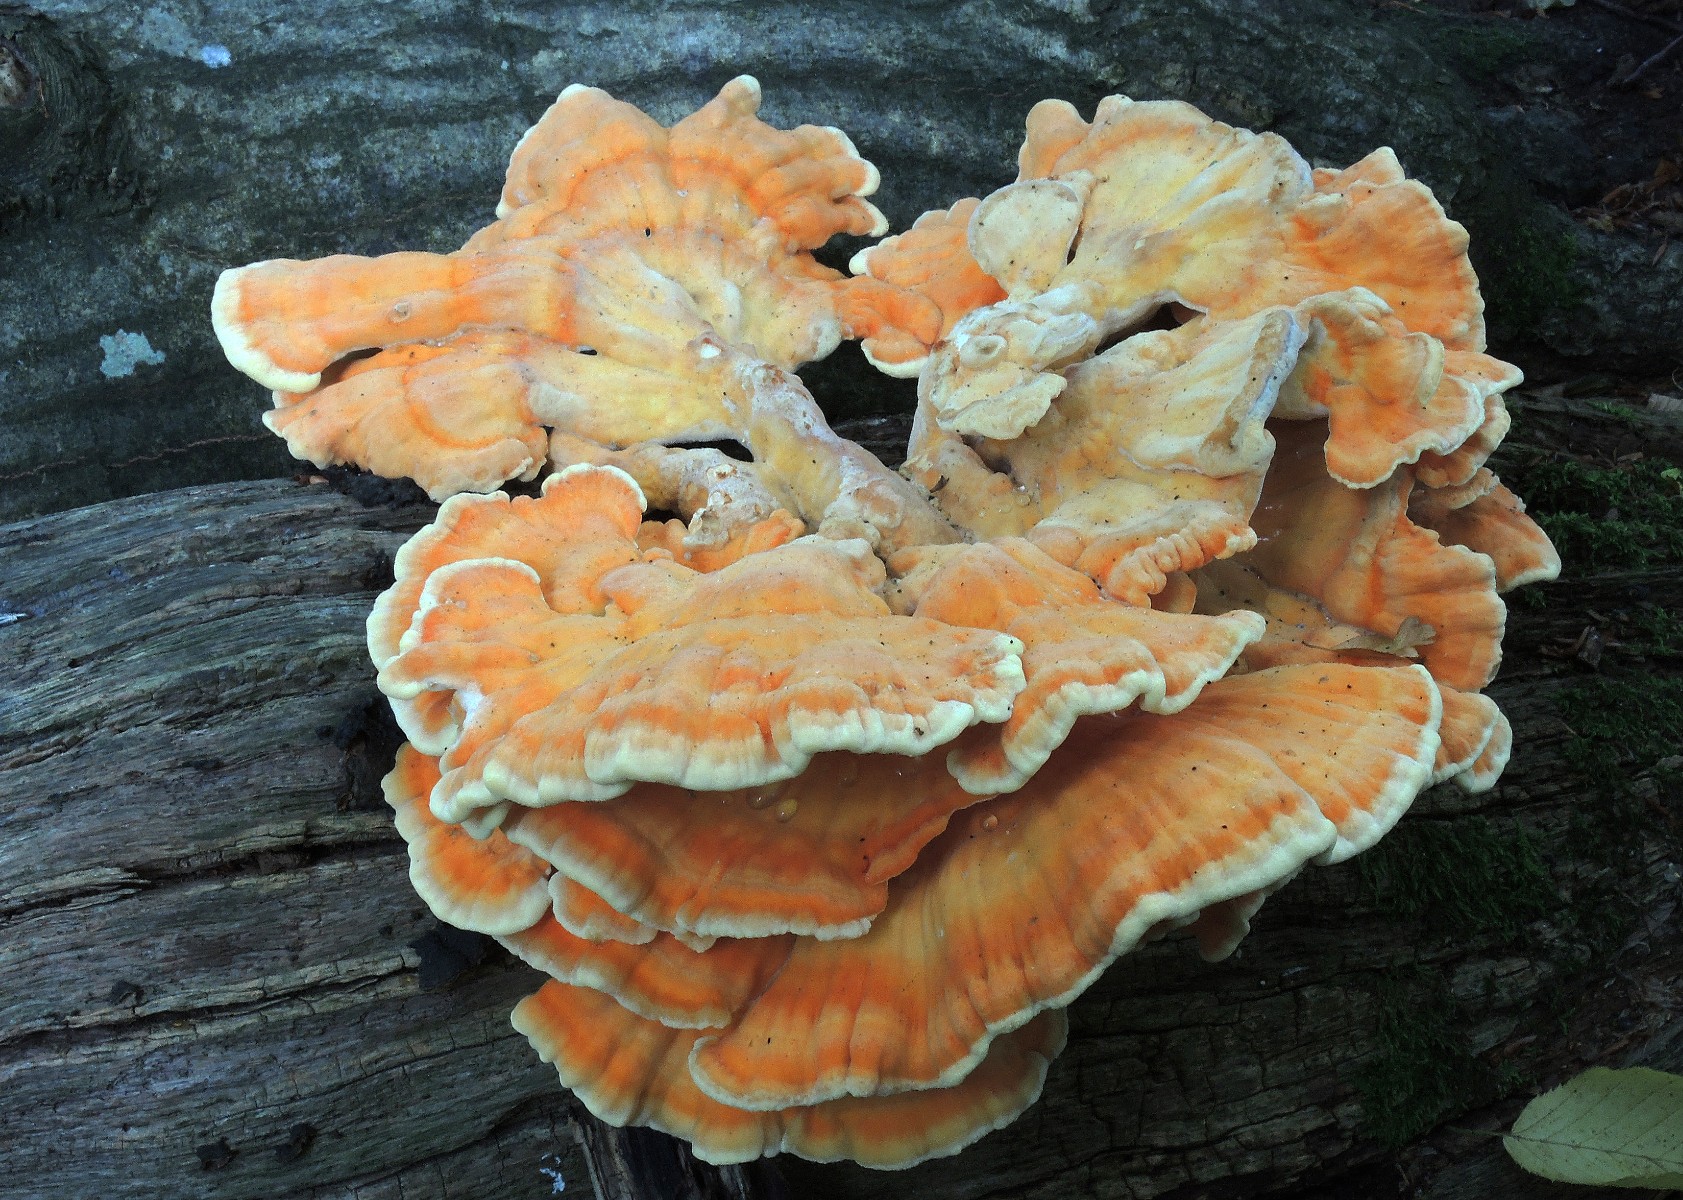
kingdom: Fungi
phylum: Basidiomycota
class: Agaricomycetes
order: Polyporales
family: Laetiporaceae
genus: Laetiporus
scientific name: Laetiporus sulphureus
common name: svovlporesvamp
